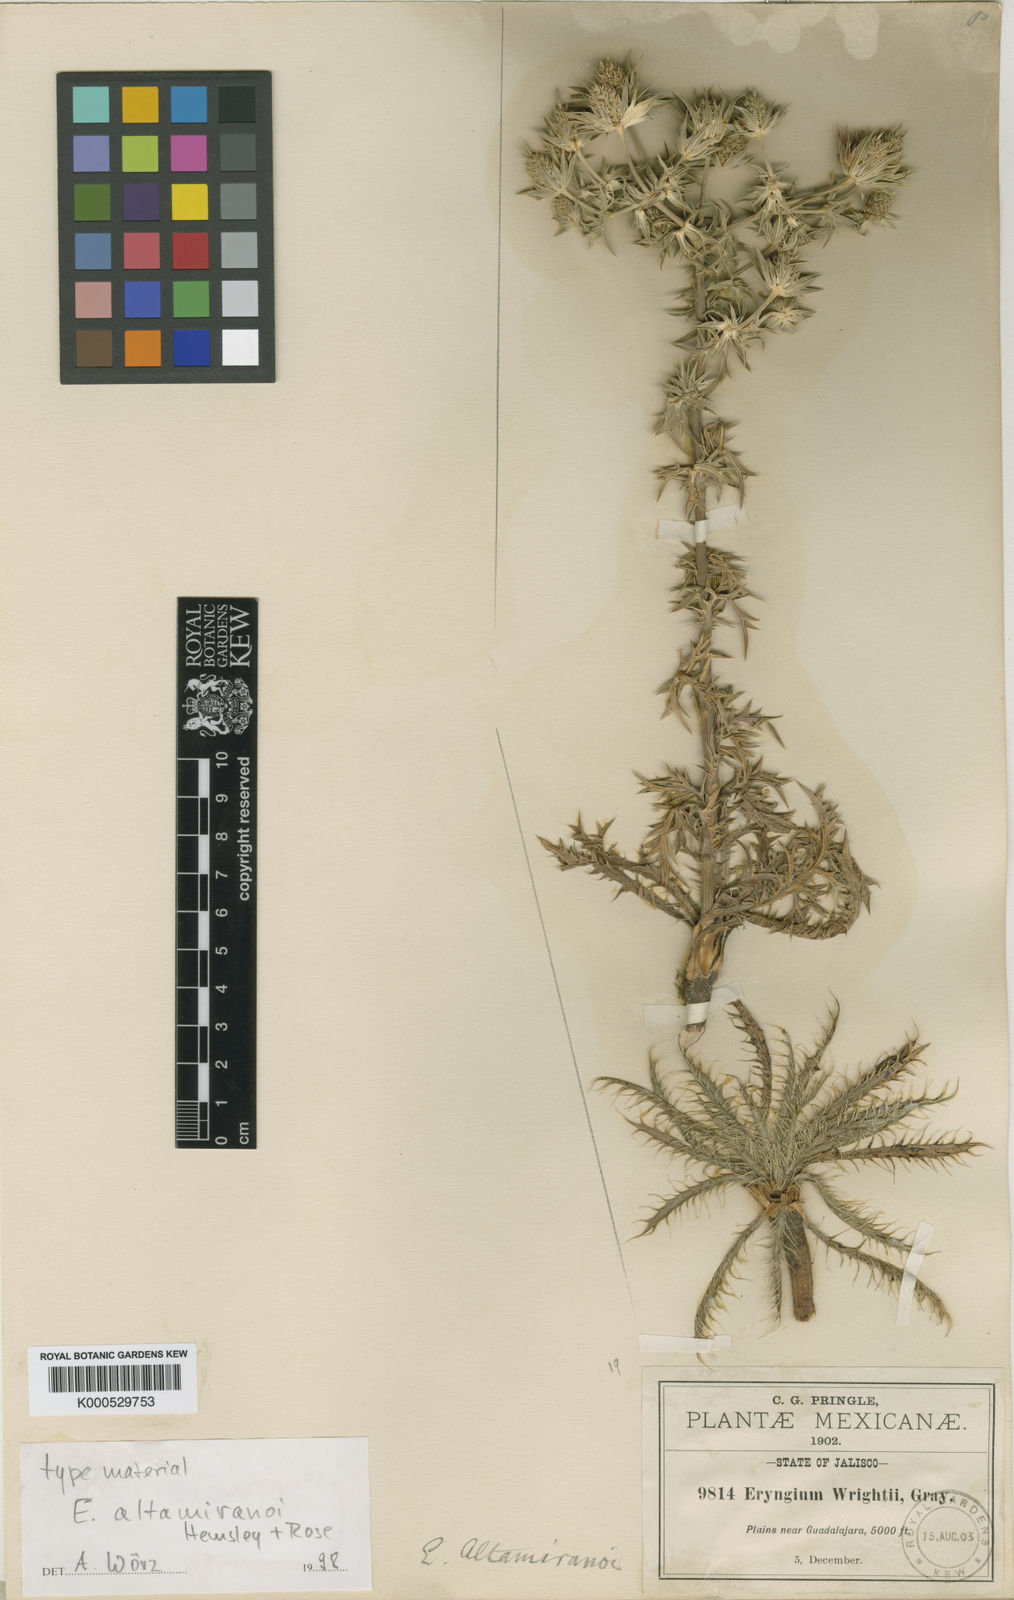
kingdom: Plantae
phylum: Tracheophyta
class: Magnoliopsida
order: Apiales
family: Apiaceae
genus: Eryngium
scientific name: Eryngium heterophyllum
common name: Mexican thistle
